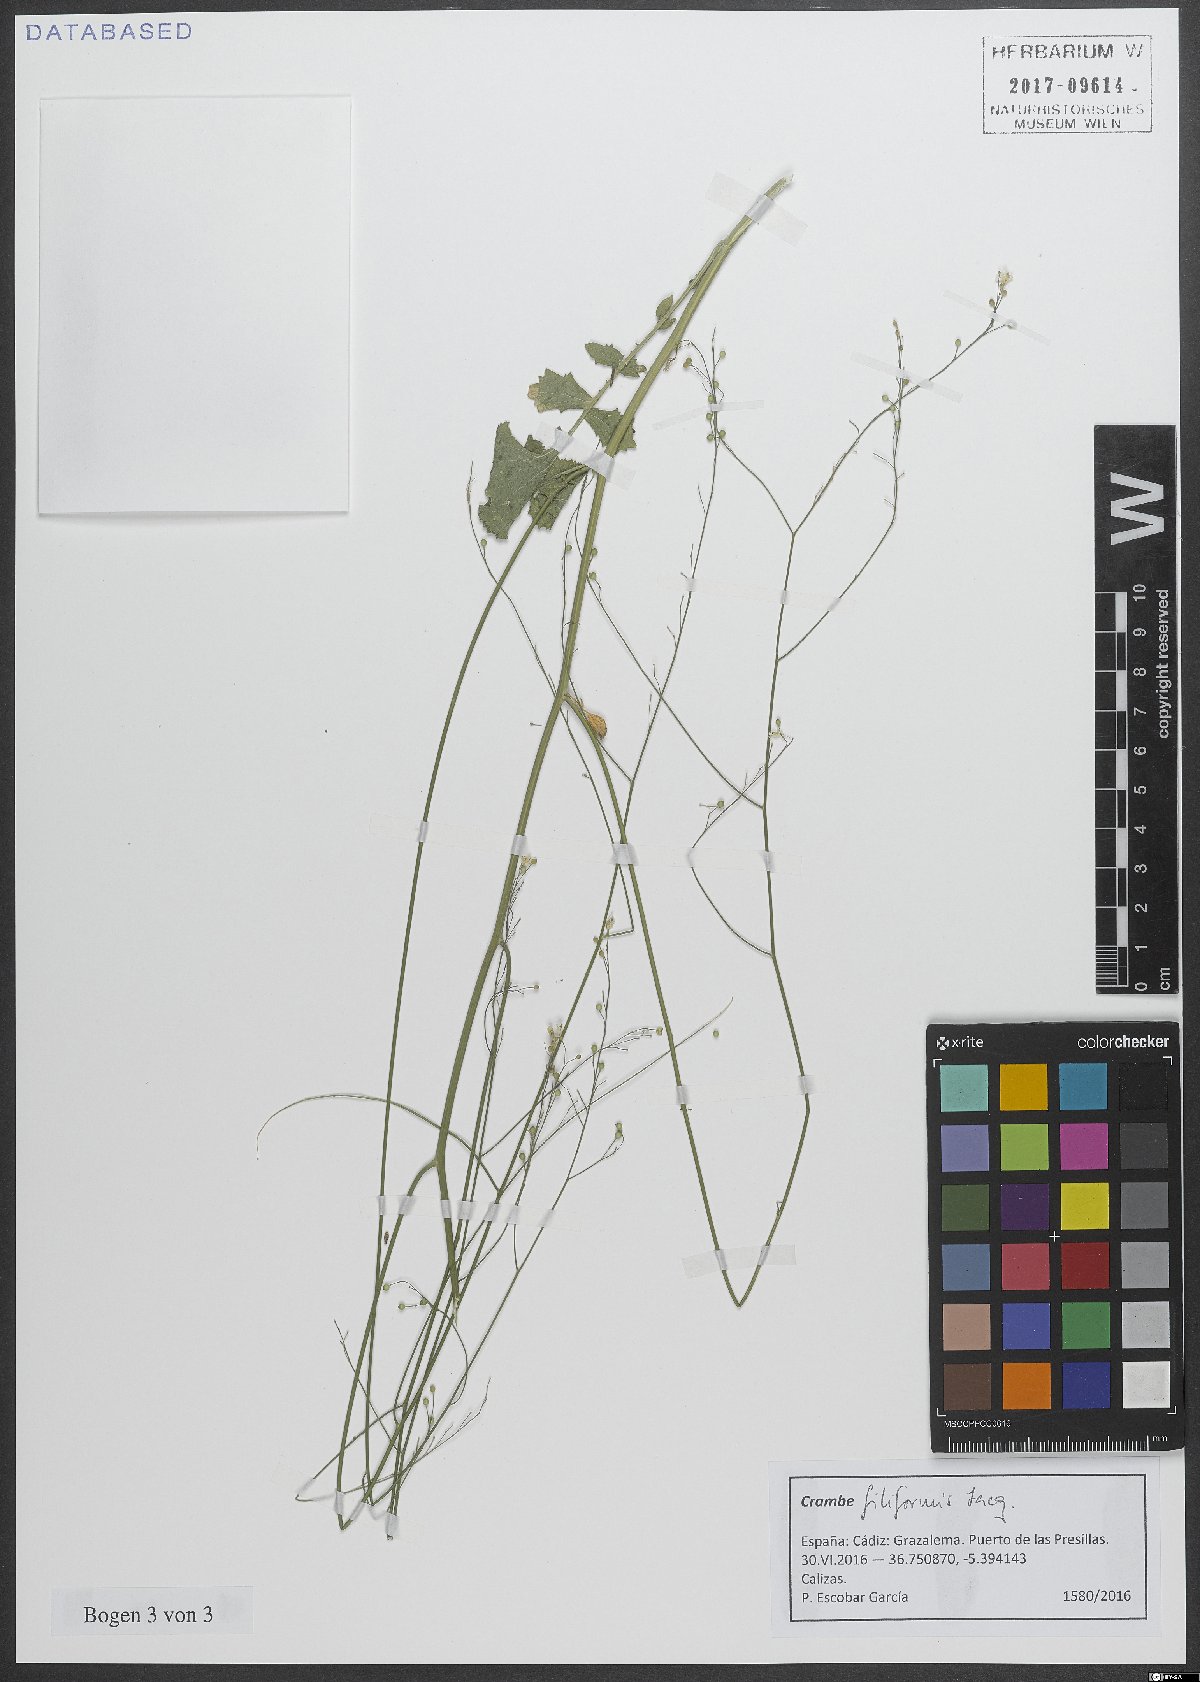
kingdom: Plantae
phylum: Tracheophyta
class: Magnoliopsida
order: Brassicales
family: Brassicaceae
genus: Crambe
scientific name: Crambe filiformis
